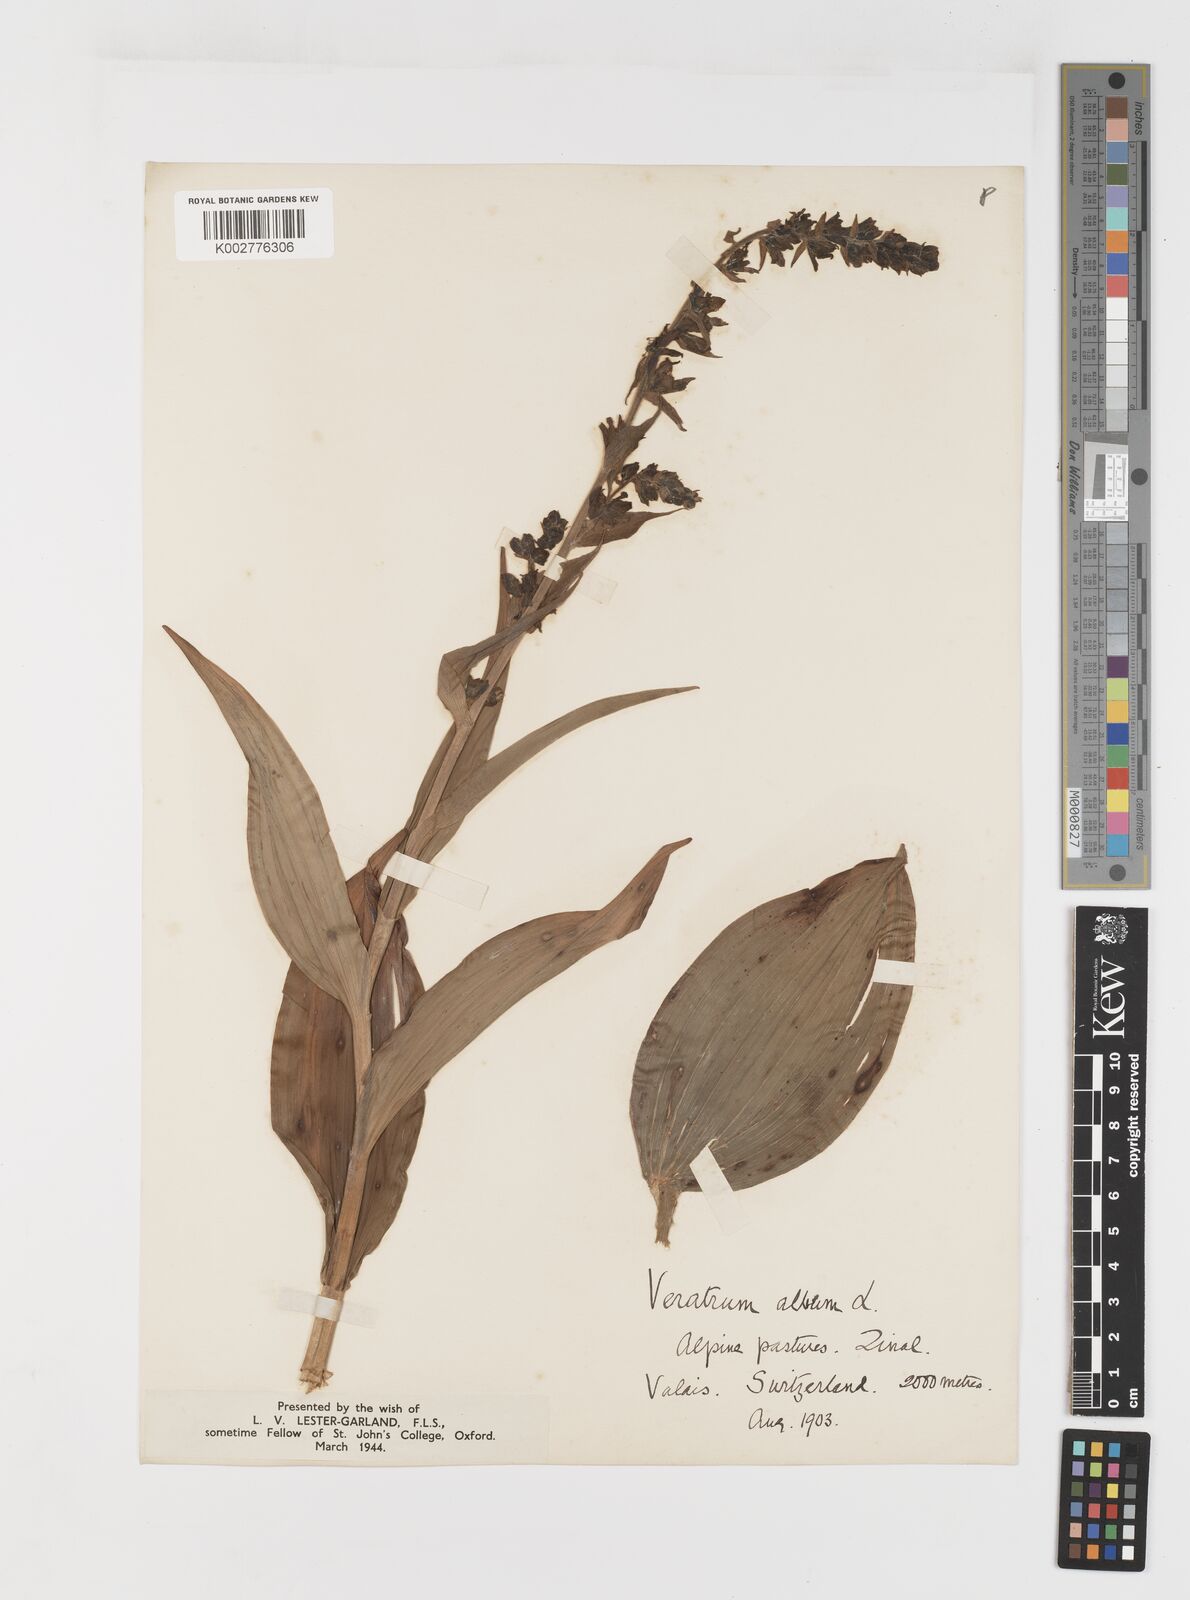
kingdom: Plantae
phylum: Tracheophyta
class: Liliopsida
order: Liliales
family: Melanthiaceae
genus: Veratrum
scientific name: Veratrum album
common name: White veratrum
